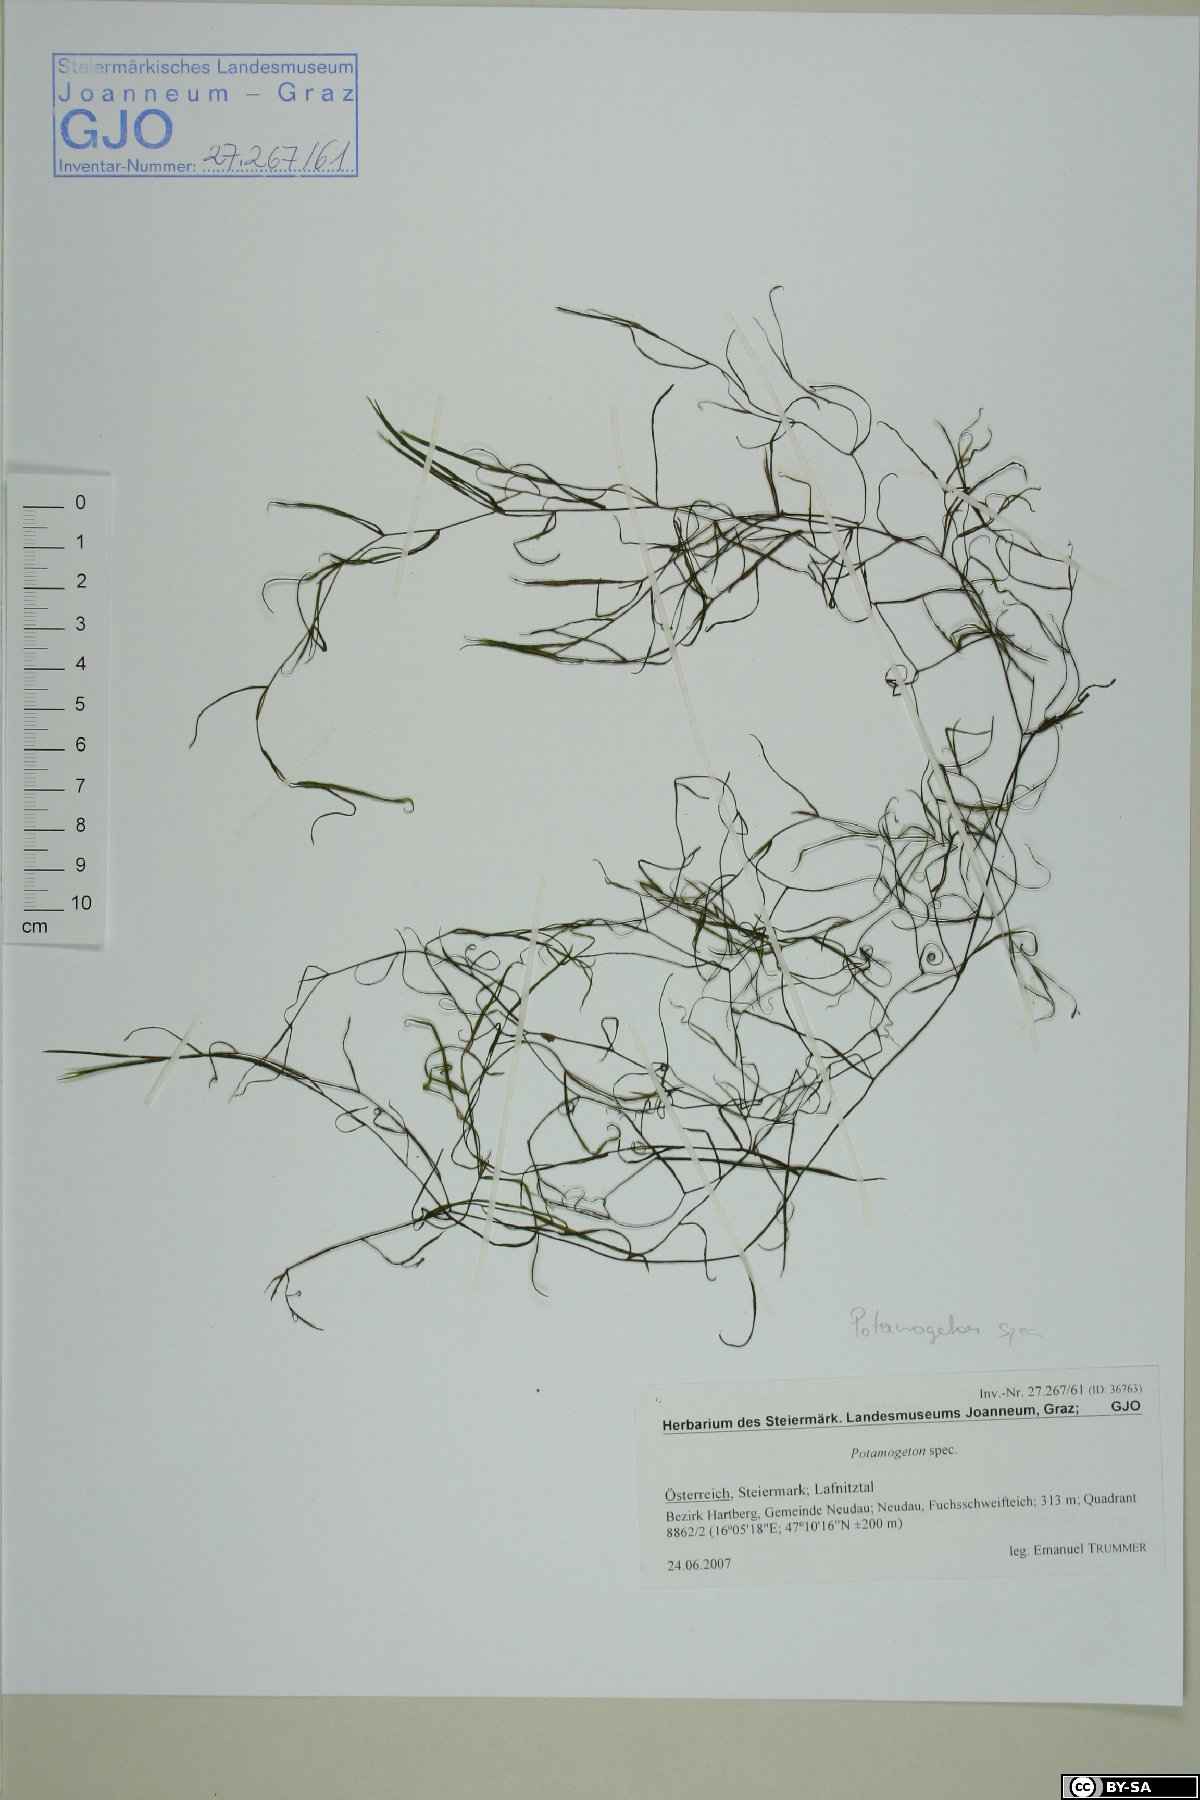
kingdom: Plantae
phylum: Tracheophyta
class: Liliopsida
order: Alismatales
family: Potamogetonaceae
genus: Potamogeton
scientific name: Potamogeton
